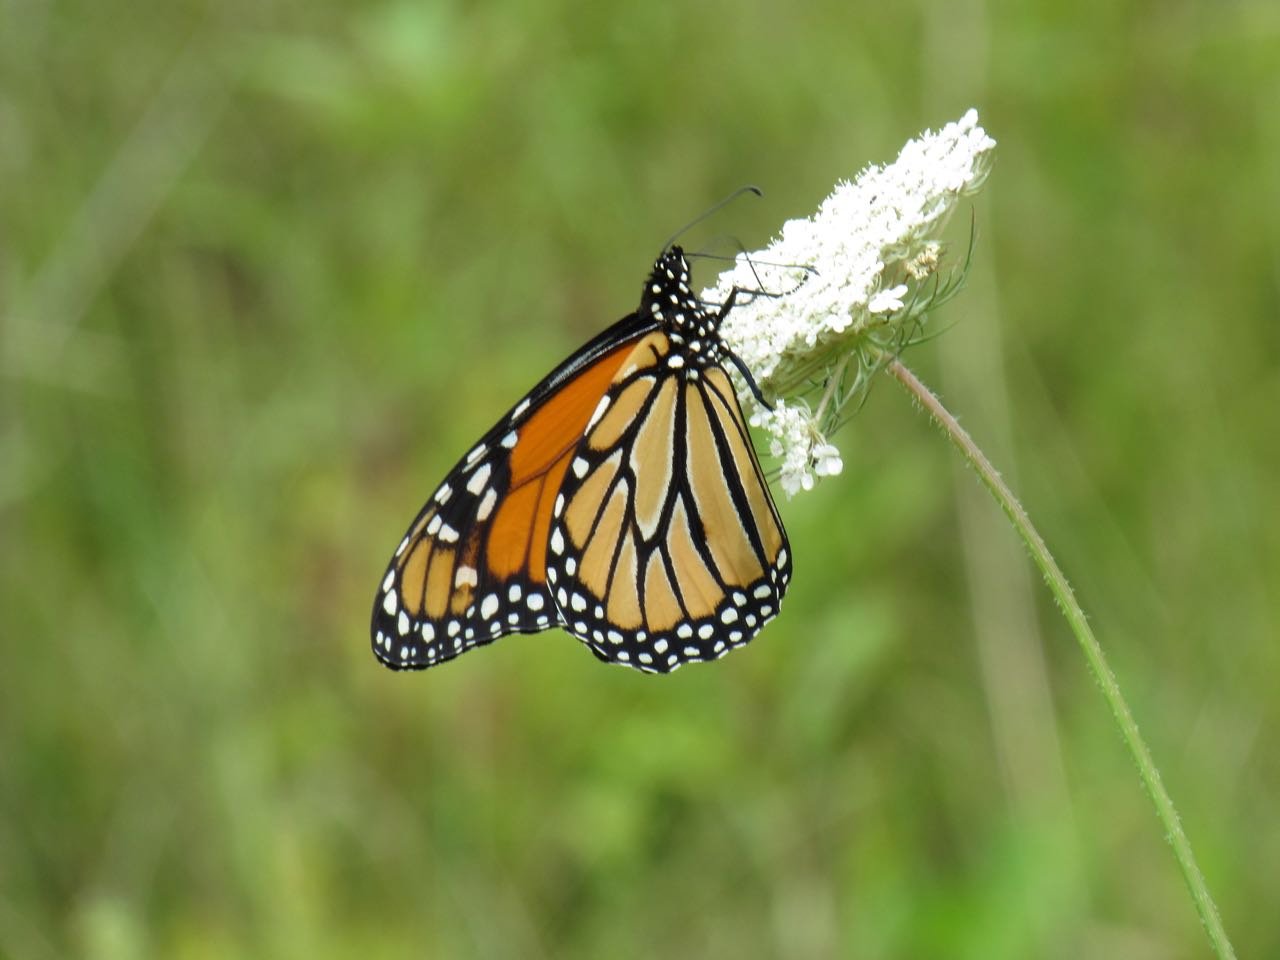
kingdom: Animalia
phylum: Arthropoda
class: Insecta
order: Lepidoptera
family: Nymphalidae
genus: Danaus
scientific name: Danaus plexippus
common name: Monarch
